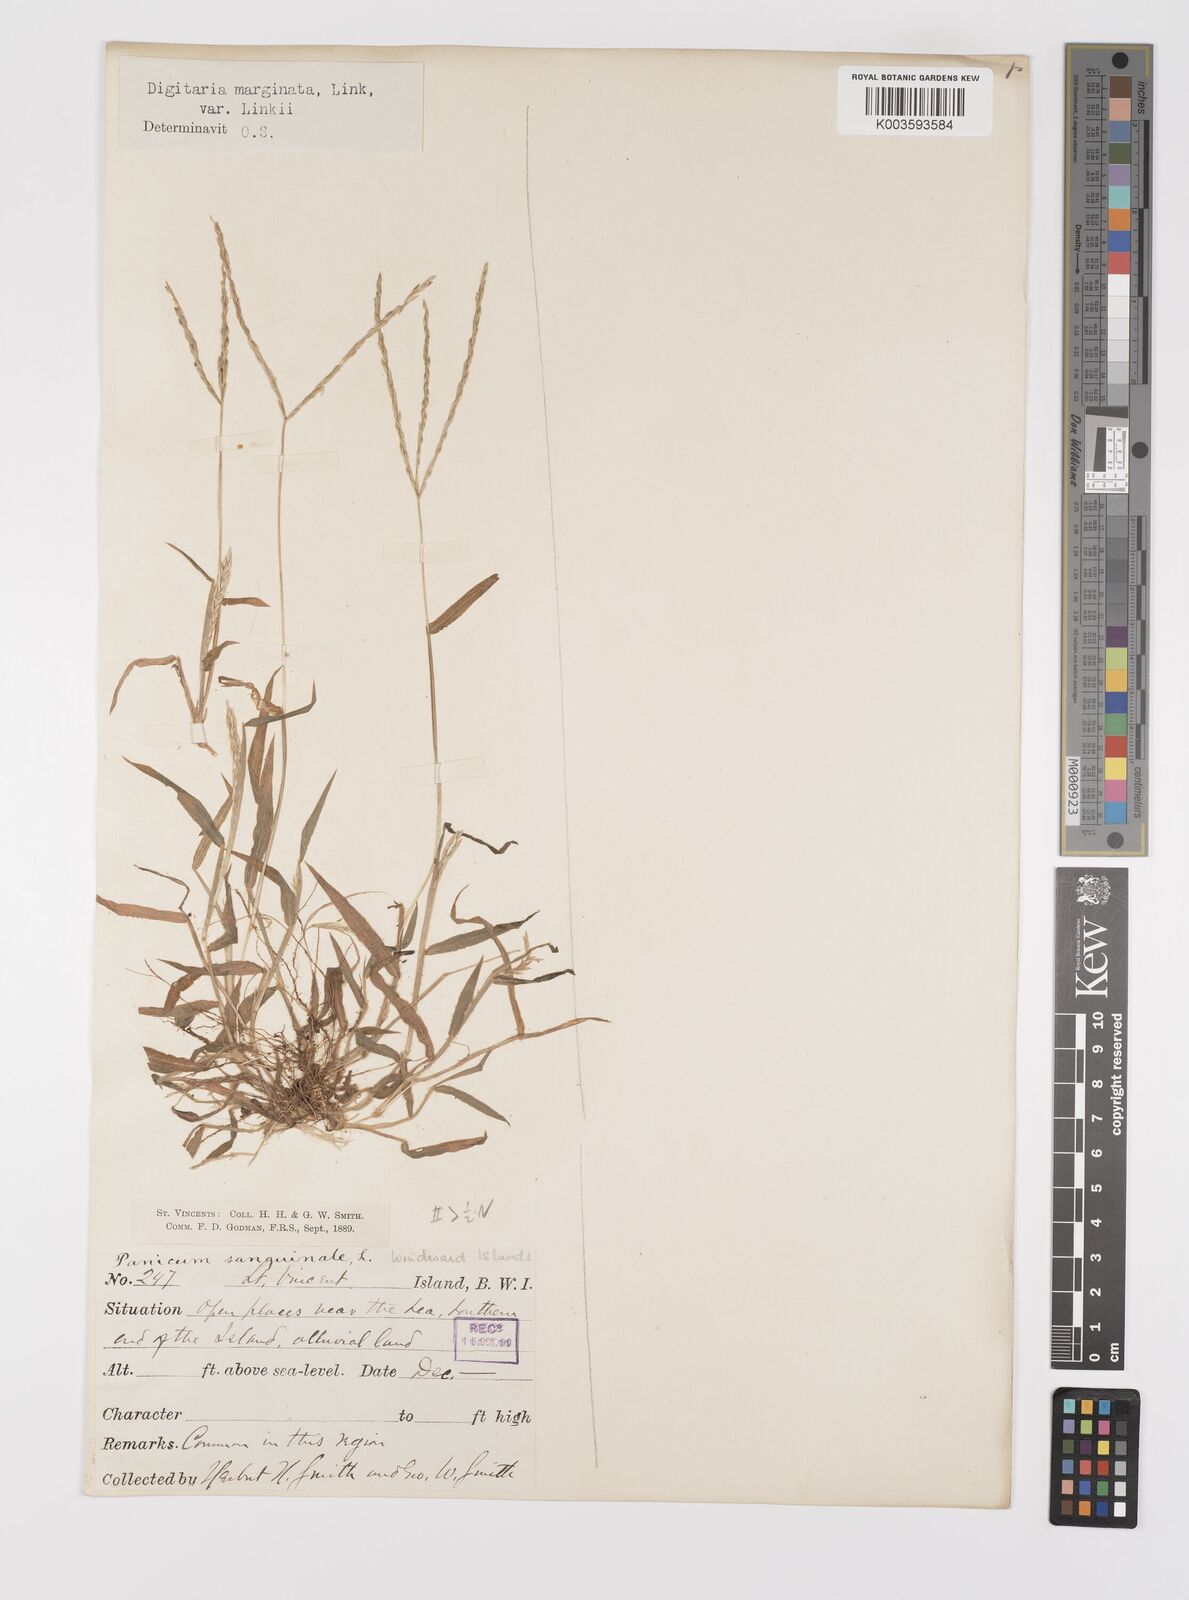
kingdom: Plantae
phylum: Tracheophyta
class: Liliopsida
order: Poales
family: Poaceae
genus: Digitaria
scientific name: Digitaria ciliaris
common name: Tropical finger-grass
